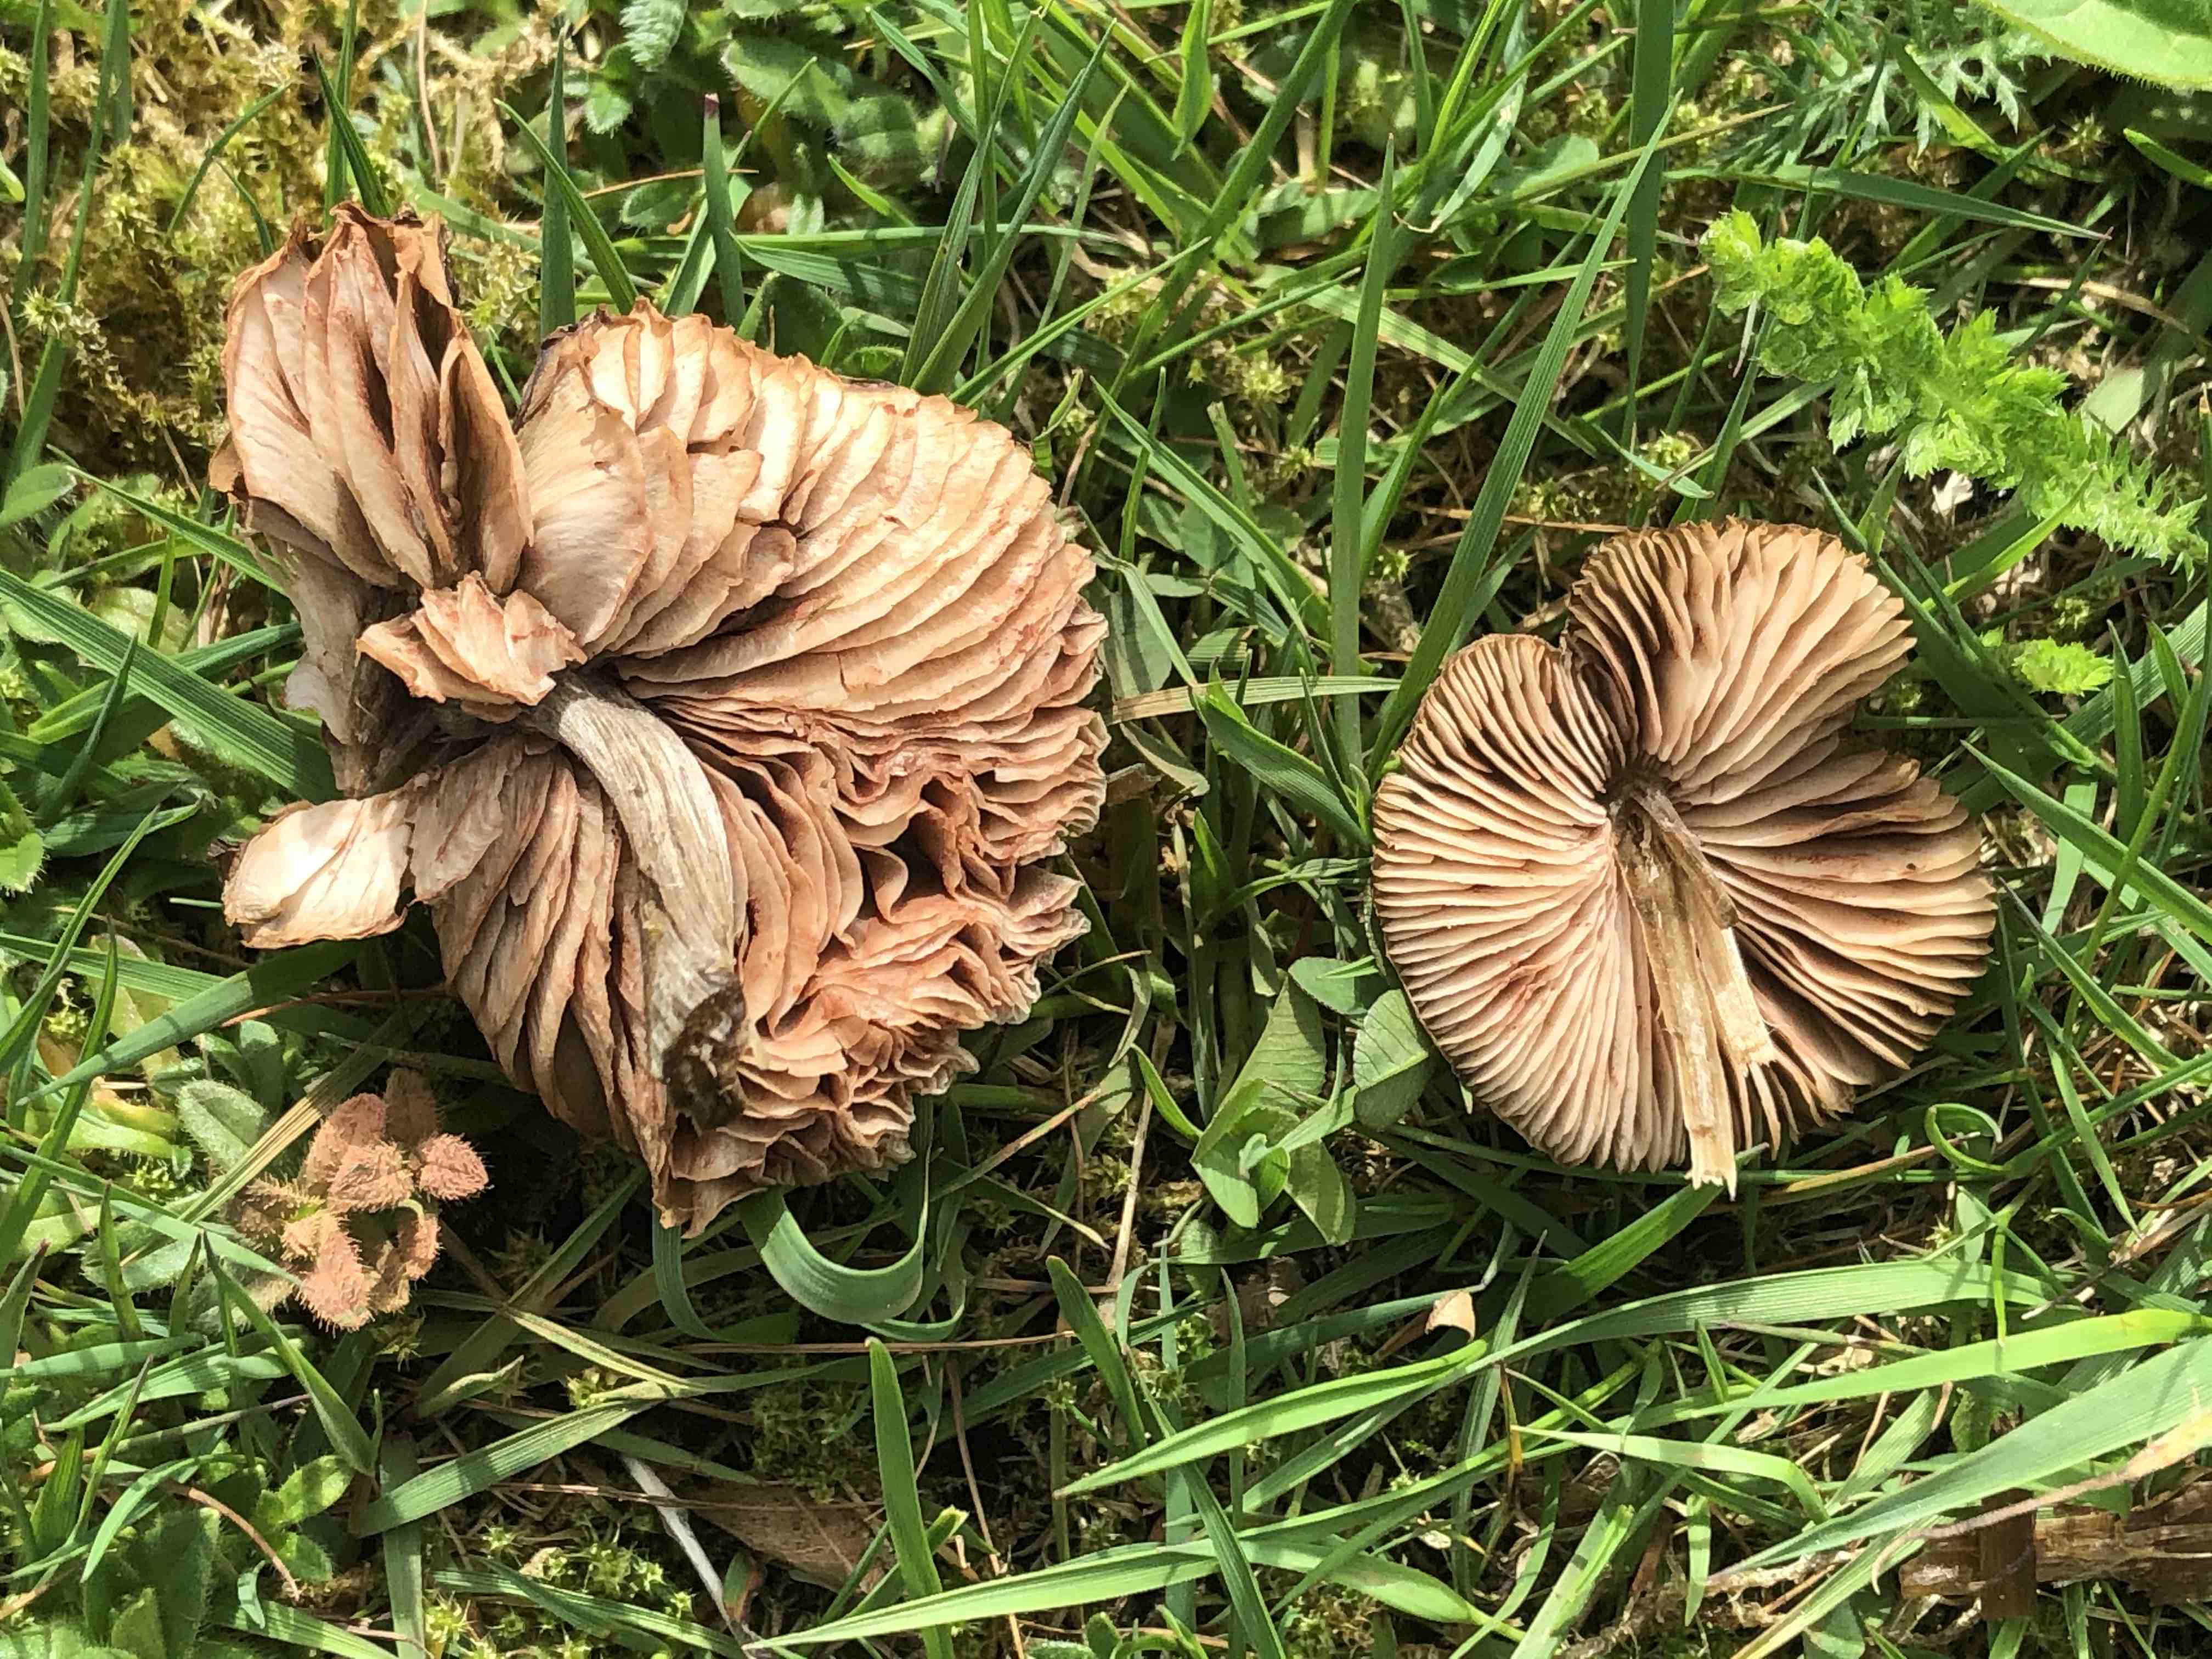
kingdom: Fungi
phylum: Basidiomycota
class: Agaricomycetes
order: Agaricales
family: Entolomataceae
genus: Entoloma
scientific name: Entoloma
